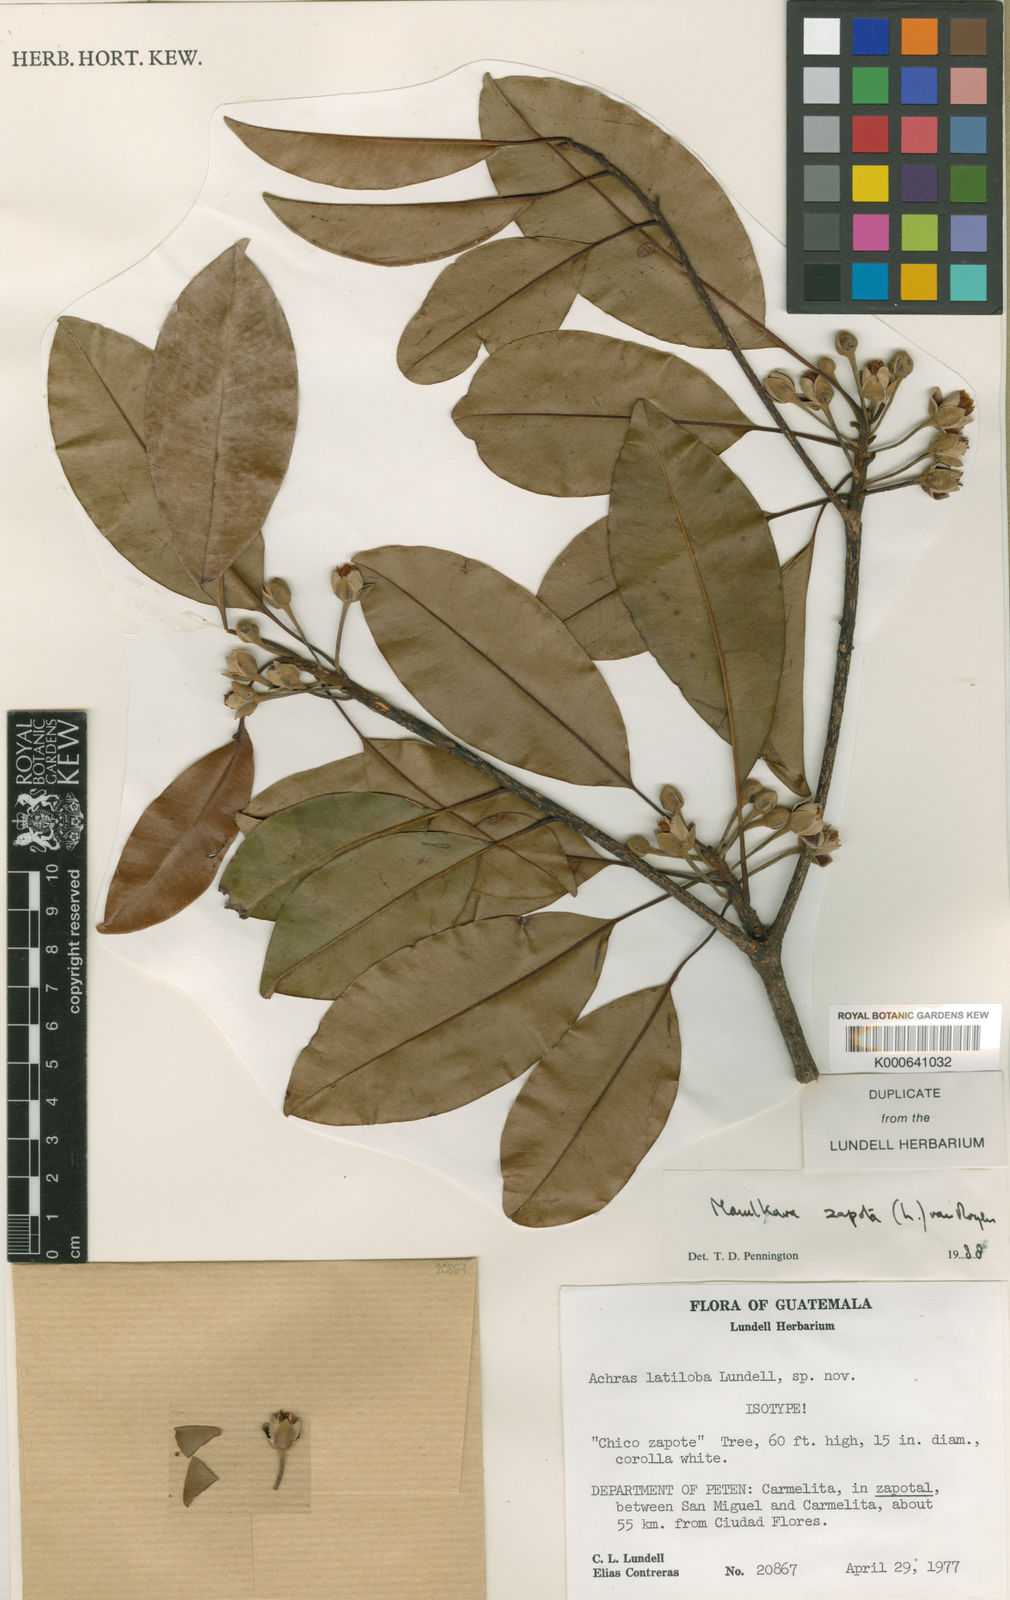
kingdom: Plantae
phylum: Tracheophyta
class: Magnoliopsida
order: Ericales
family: Sapotaceae
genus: Manilkara
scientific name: Manilkara staminodella
